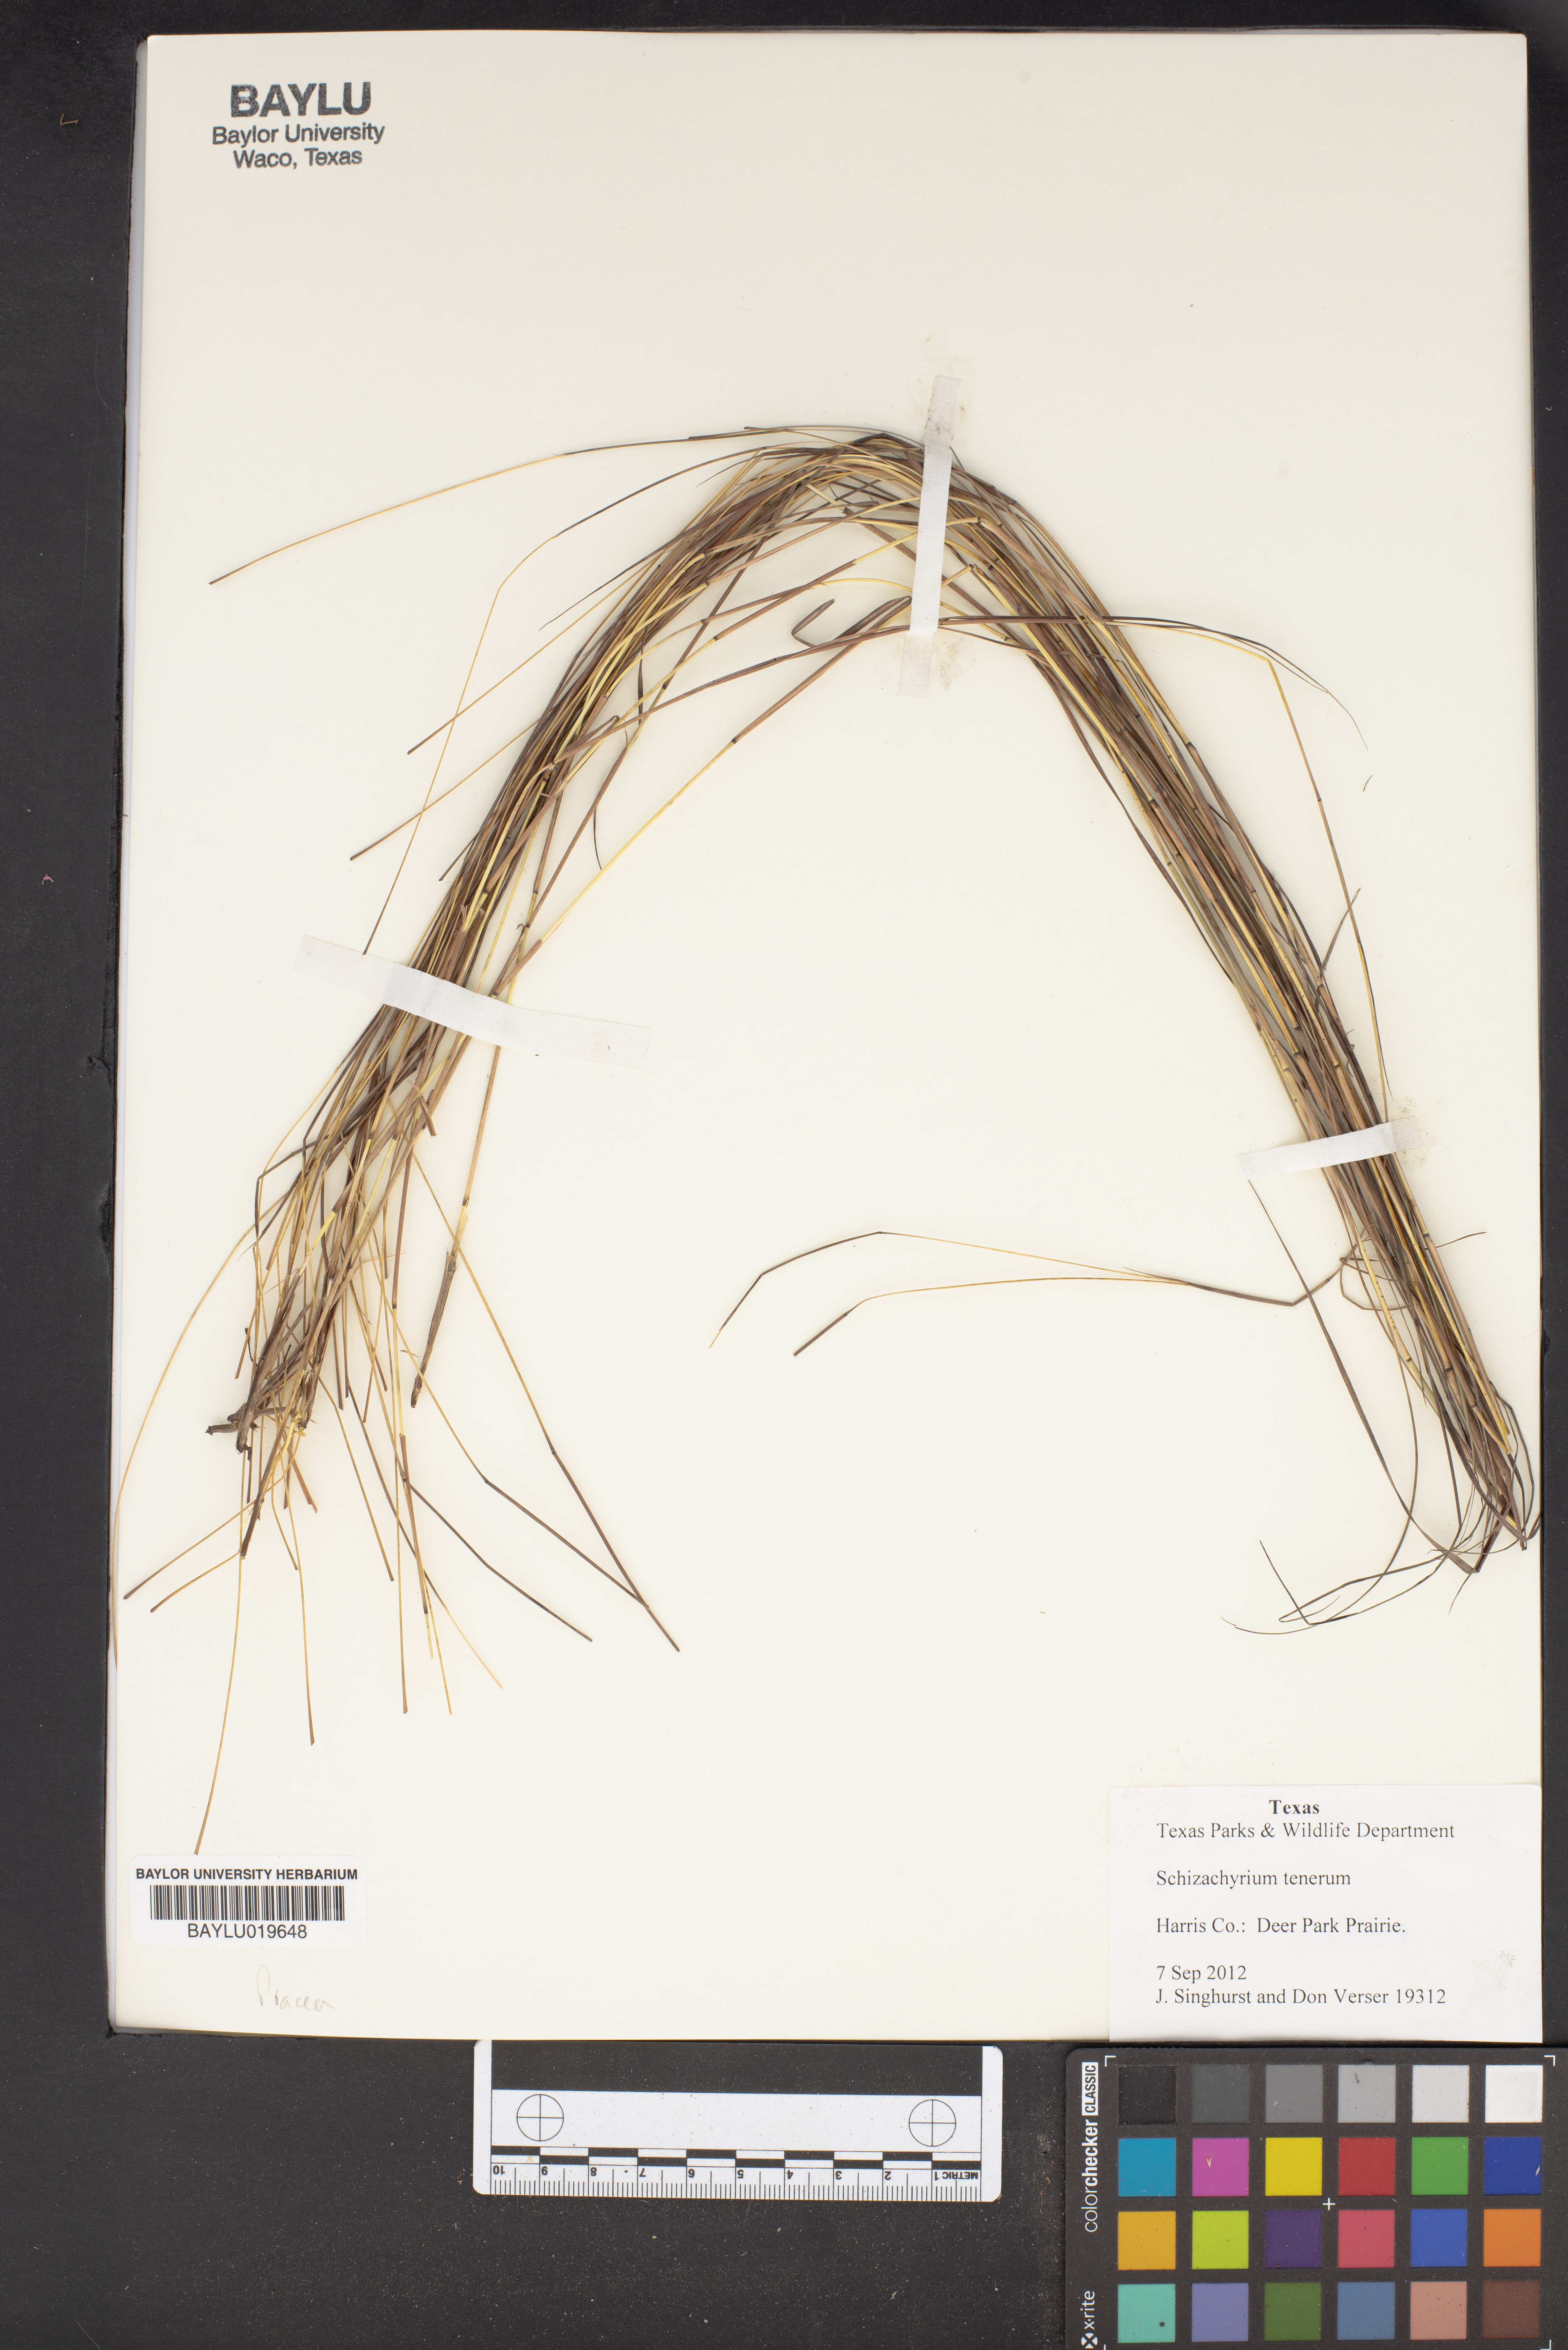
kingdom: Plantae
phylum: Tracheophyta
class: Liliopsida
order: Poales
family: Poaceae
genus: Andropogon
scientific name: Andropogon tener
